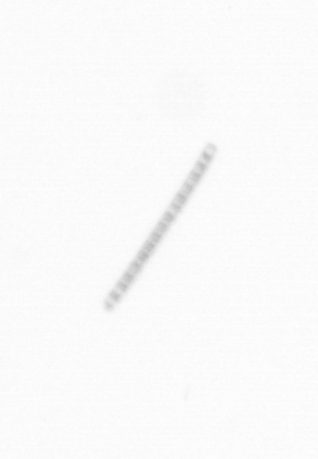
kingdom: Chromista
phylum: Ochrophyta
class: Bacillariophyceae
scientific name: Bacillariophyceae
